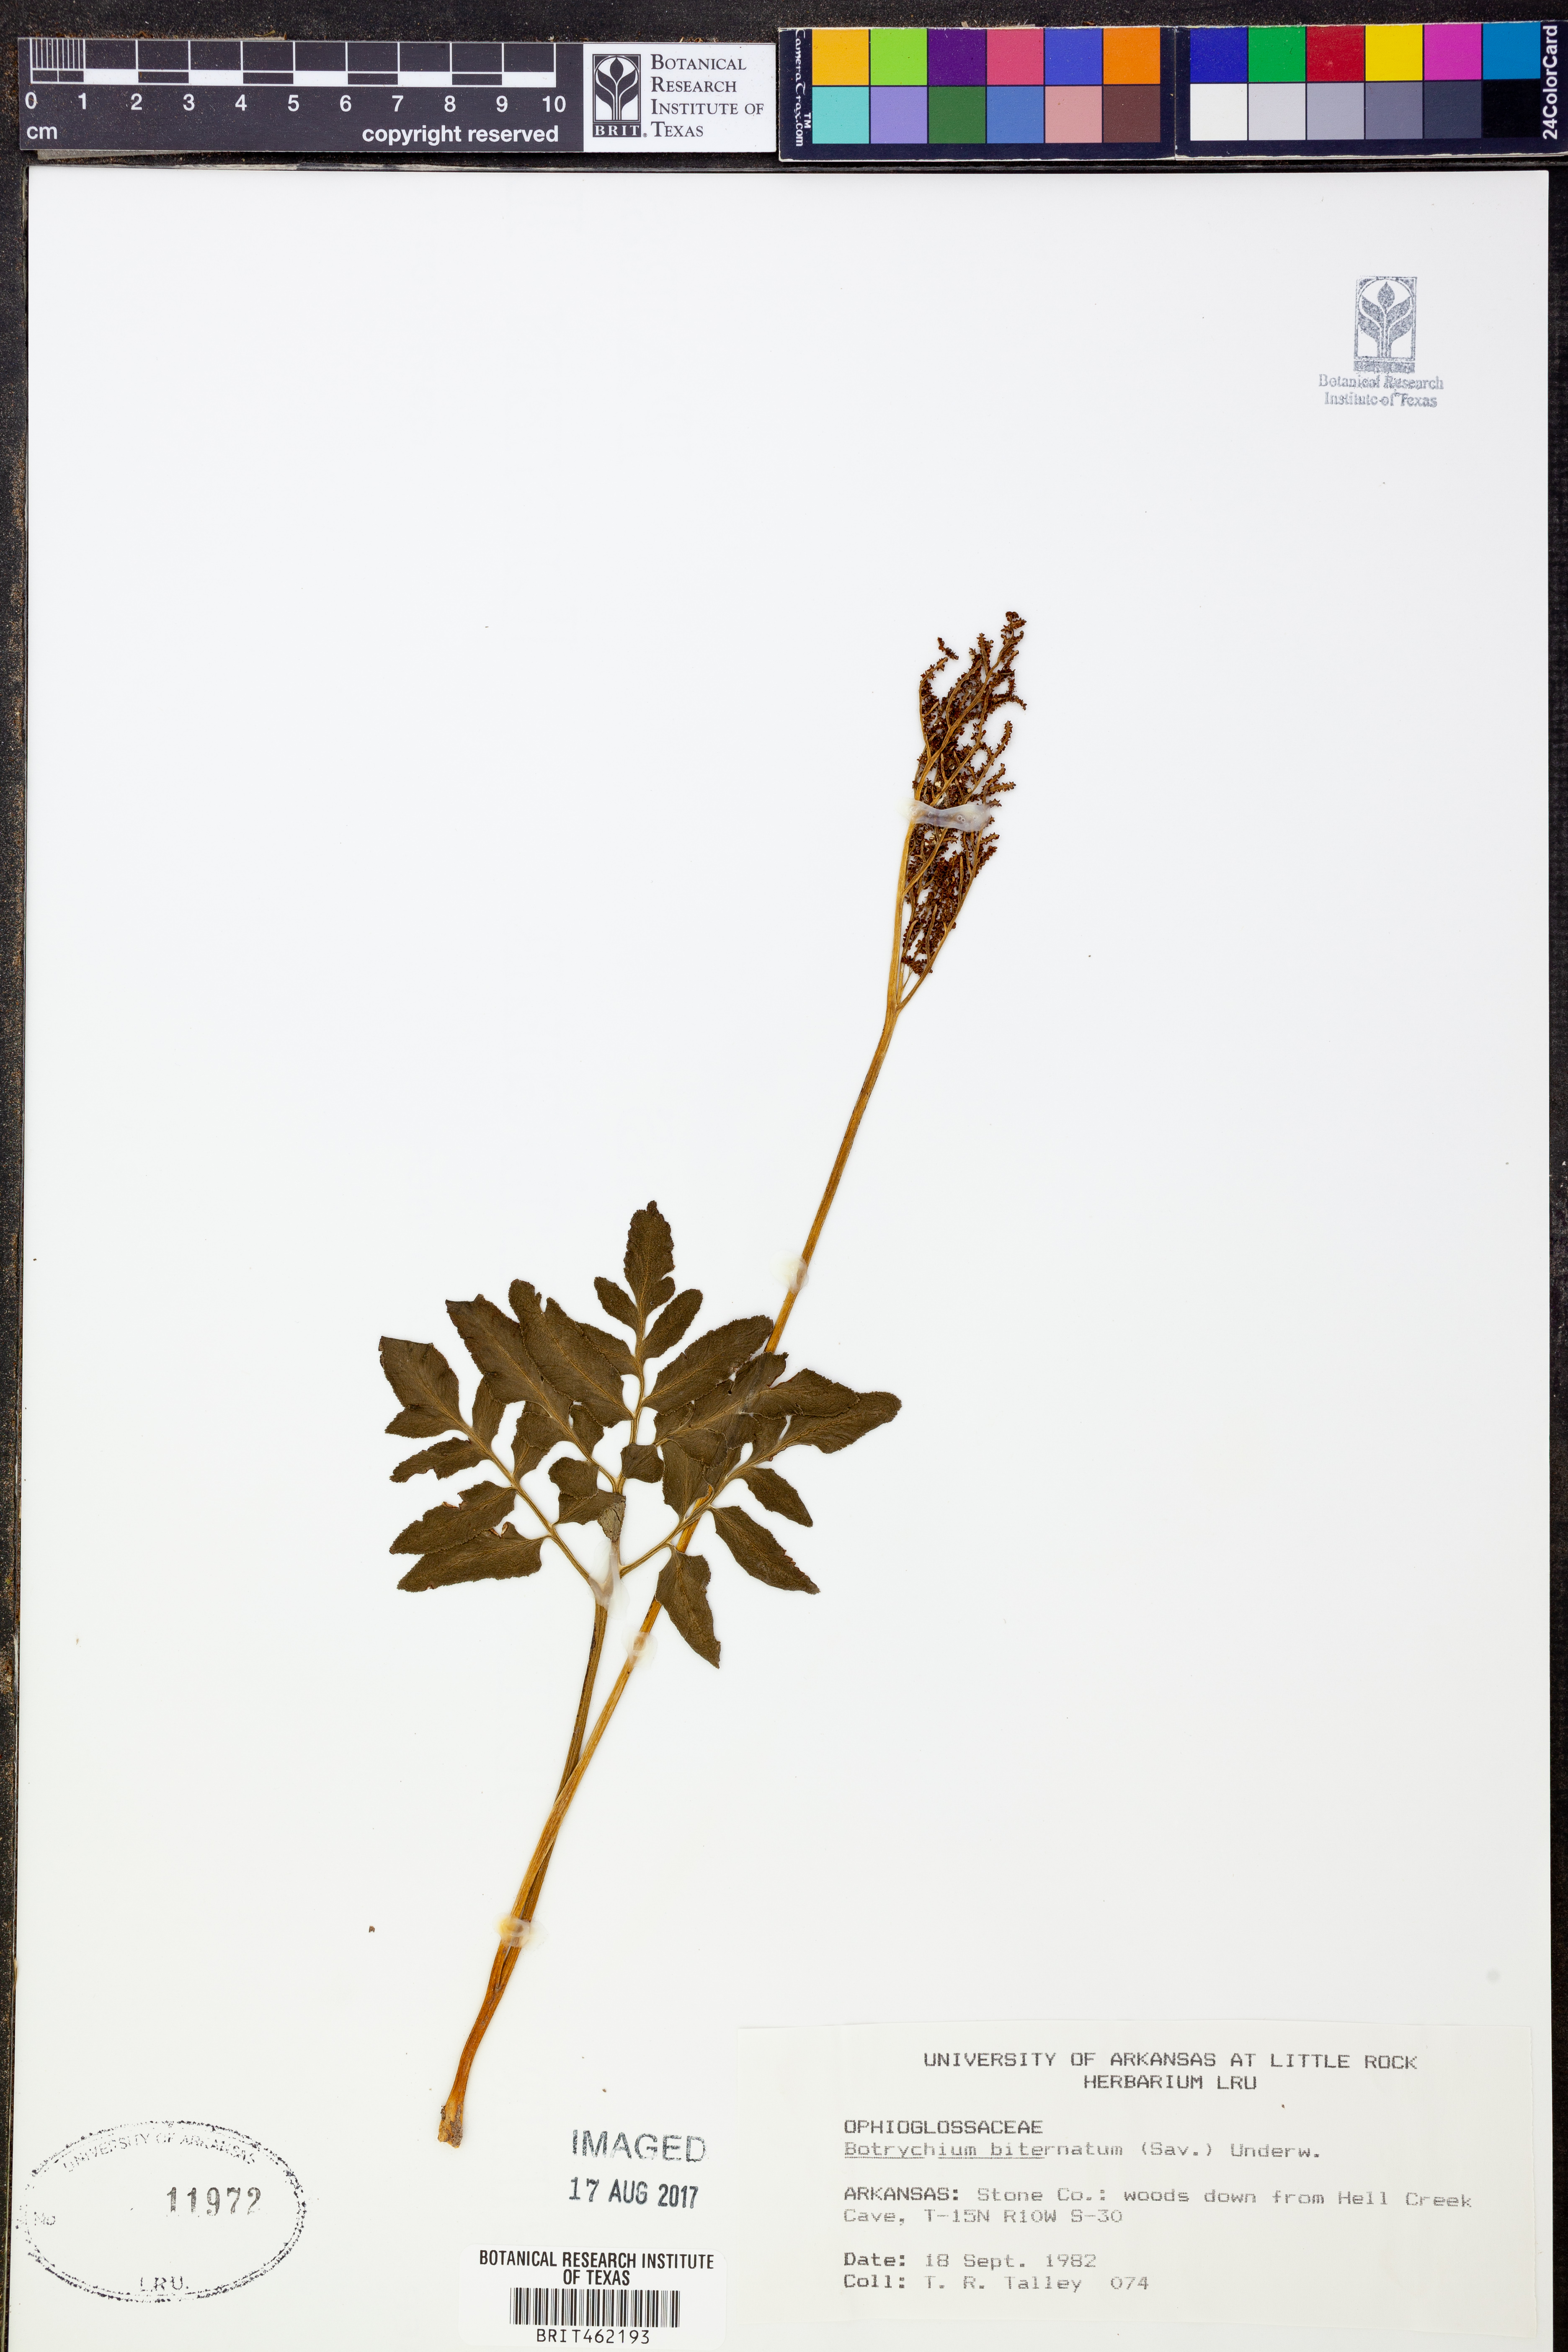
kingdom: Plantae
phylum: Tracheophyta
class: Polypodiopsida
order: Ophioglossales
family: Ophioglossaceae
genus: Sceptridium
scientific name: Sceptridium biternatum
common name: Sparse-lobed grapefern
